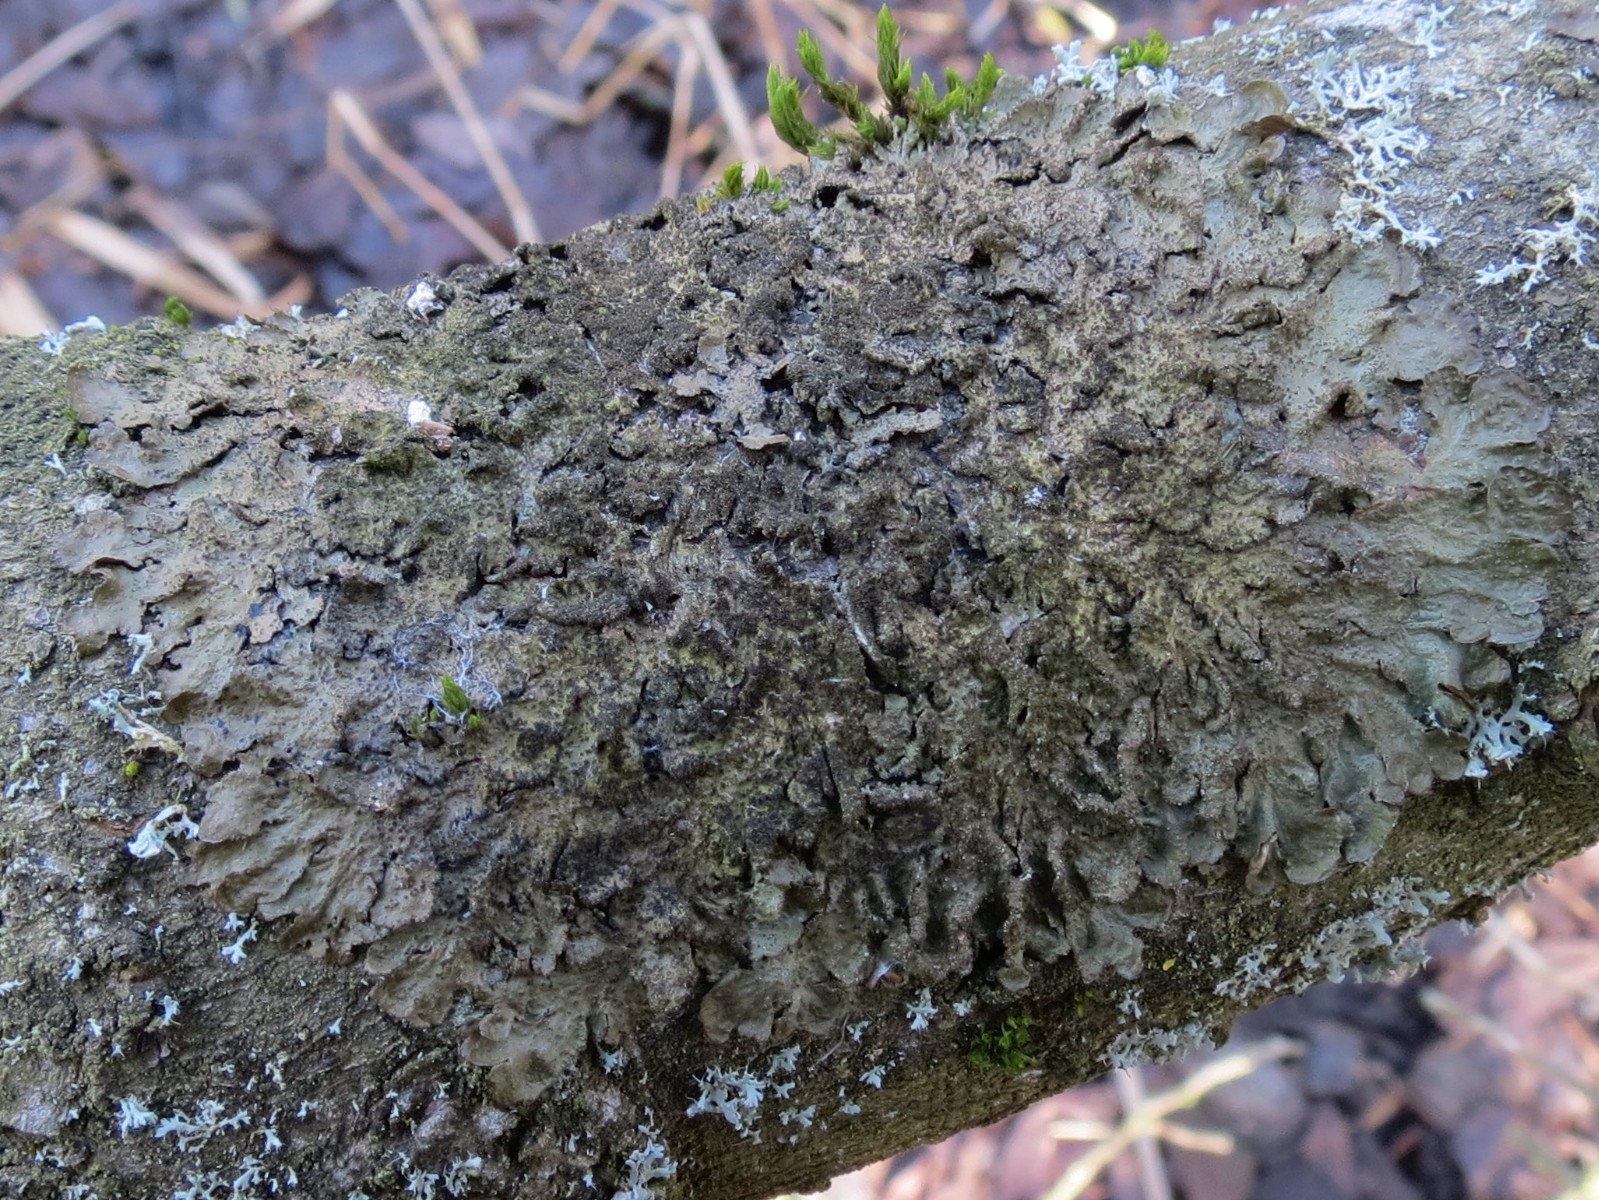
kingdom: Fungi
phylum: Ascomycota
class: Lecanoromycetes
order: Lecanorales
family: Parmeliaceae
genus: Melanelixia
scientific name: Melanelixia subaurifera
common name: guldpudret skållav
